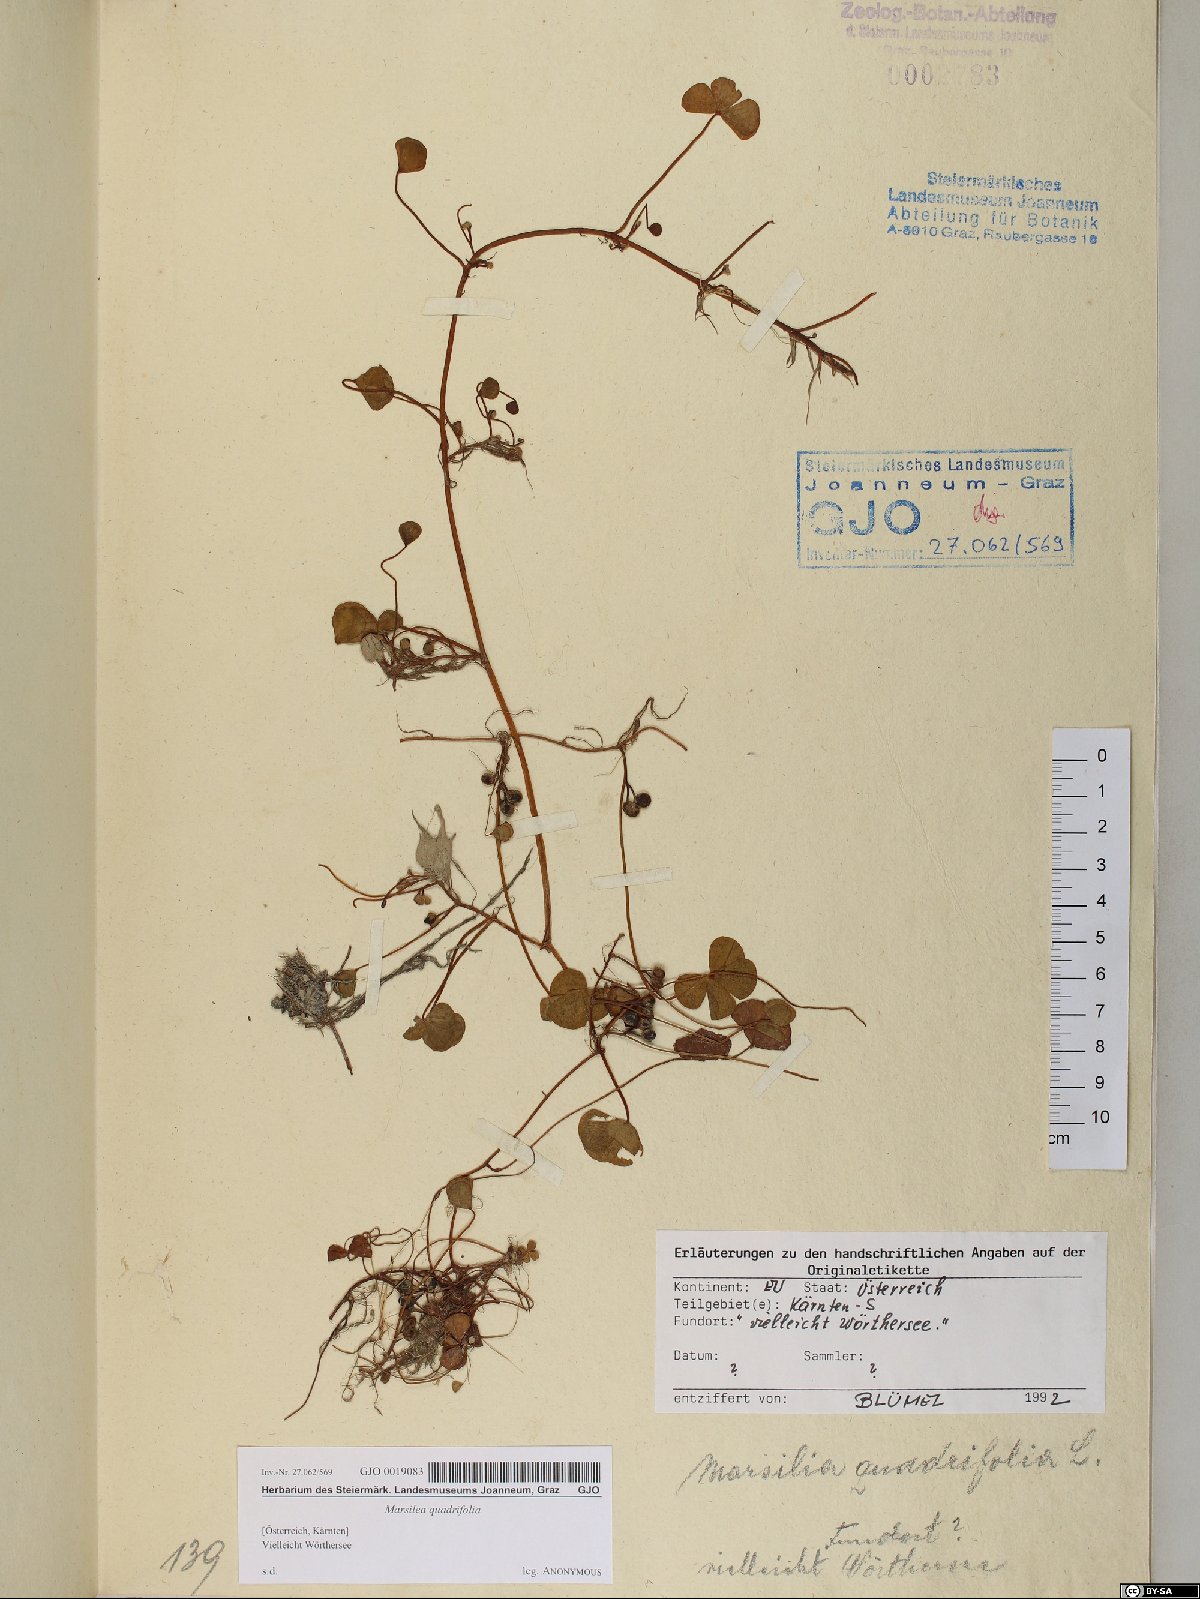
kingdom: Plantae
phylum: Tracheophyta
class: Polypodiopsida
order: Salviniales
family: Marsileaceae
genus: Marsilea
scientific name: Marsilea quadrifolia
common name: Water shamrock
